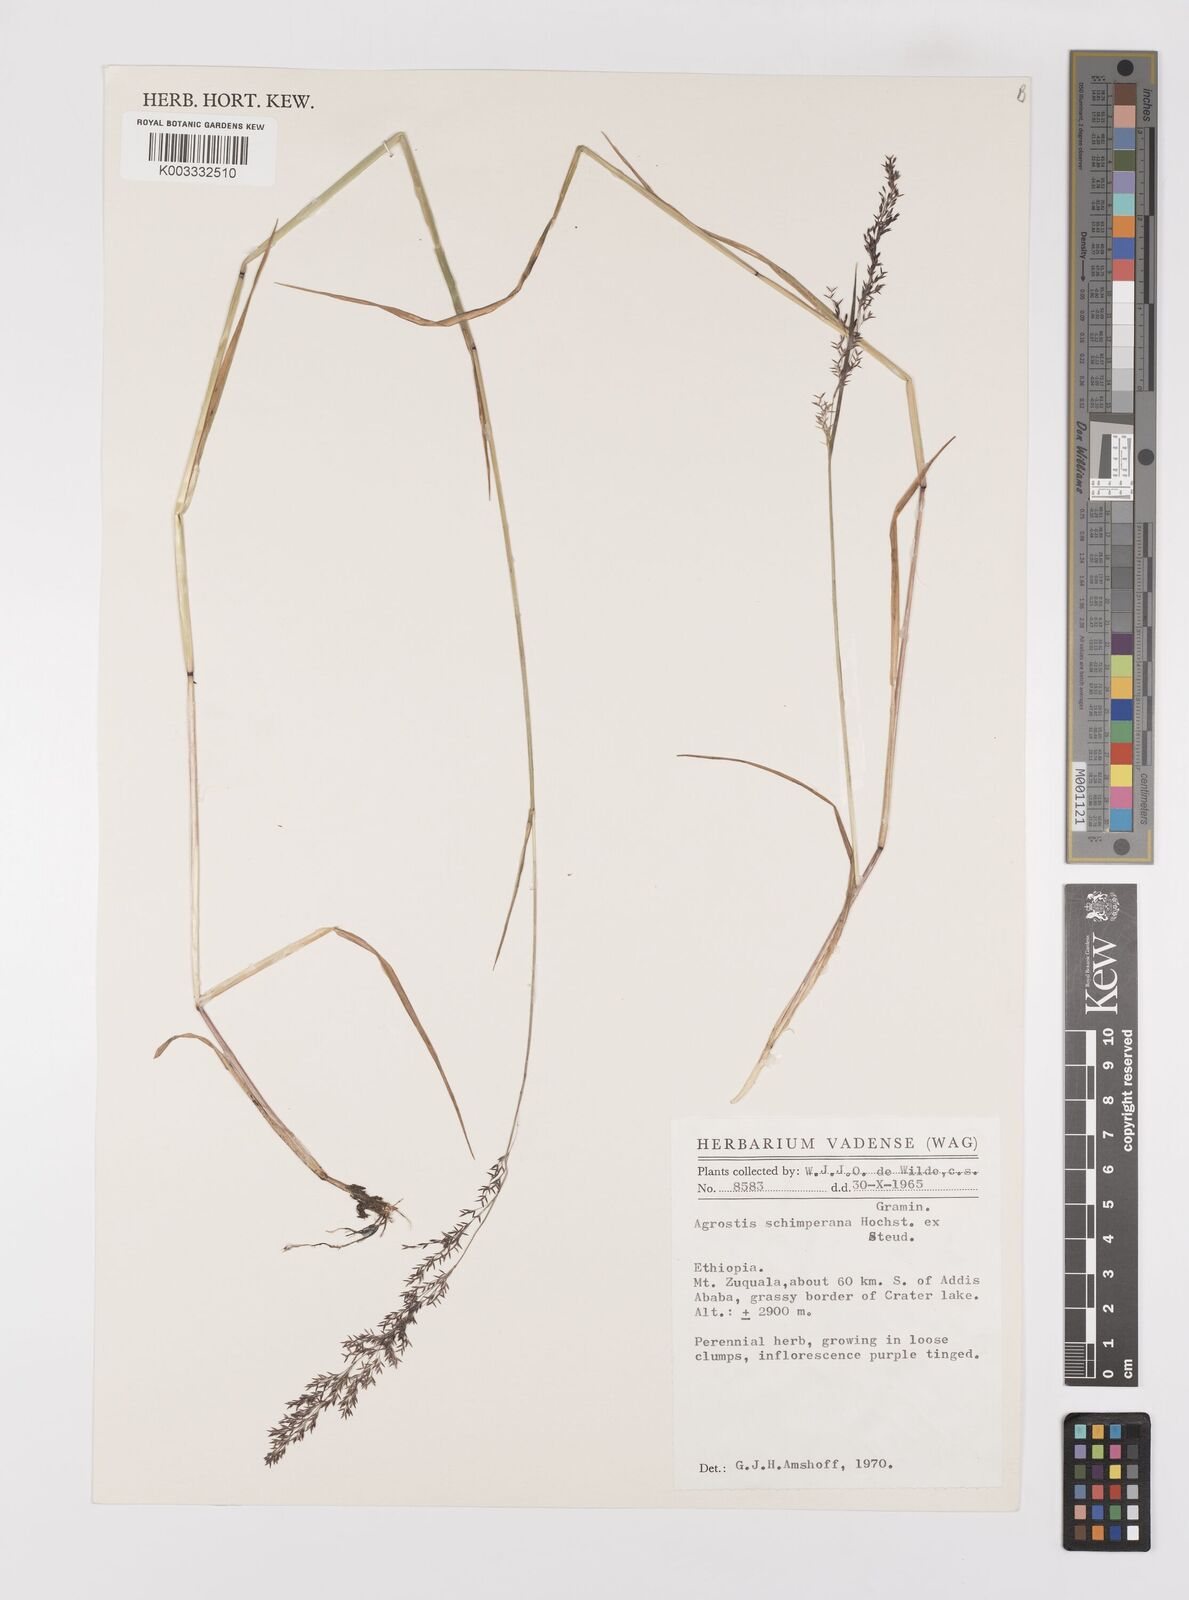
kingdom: Plantae
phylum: Tracheophyta
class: Liliopsida
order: Poales
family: Poaceae
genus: Polypogon
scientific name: Polypogon schimperianus
